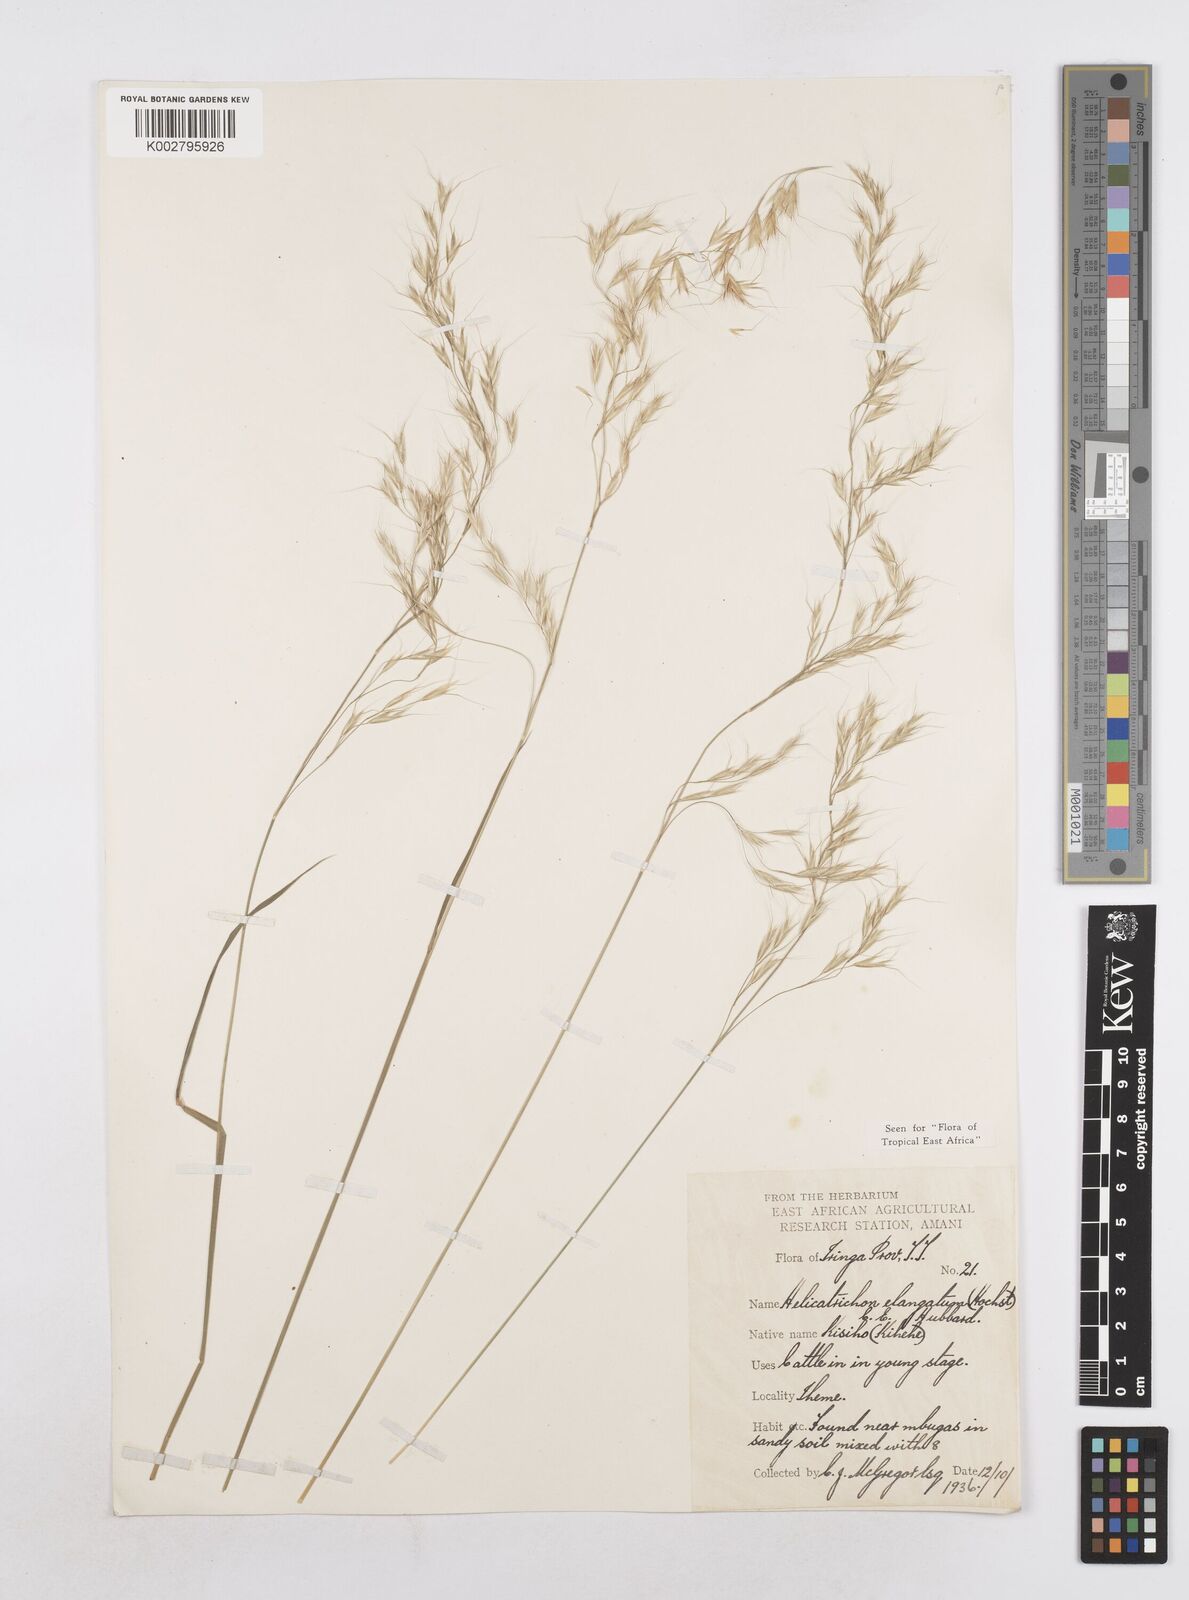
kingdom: Plantae
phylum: Tracheophyta
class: Liliopsida
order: Poales
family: Poaceae
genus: Trisetopsis
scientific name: Trisetopsis elongata
